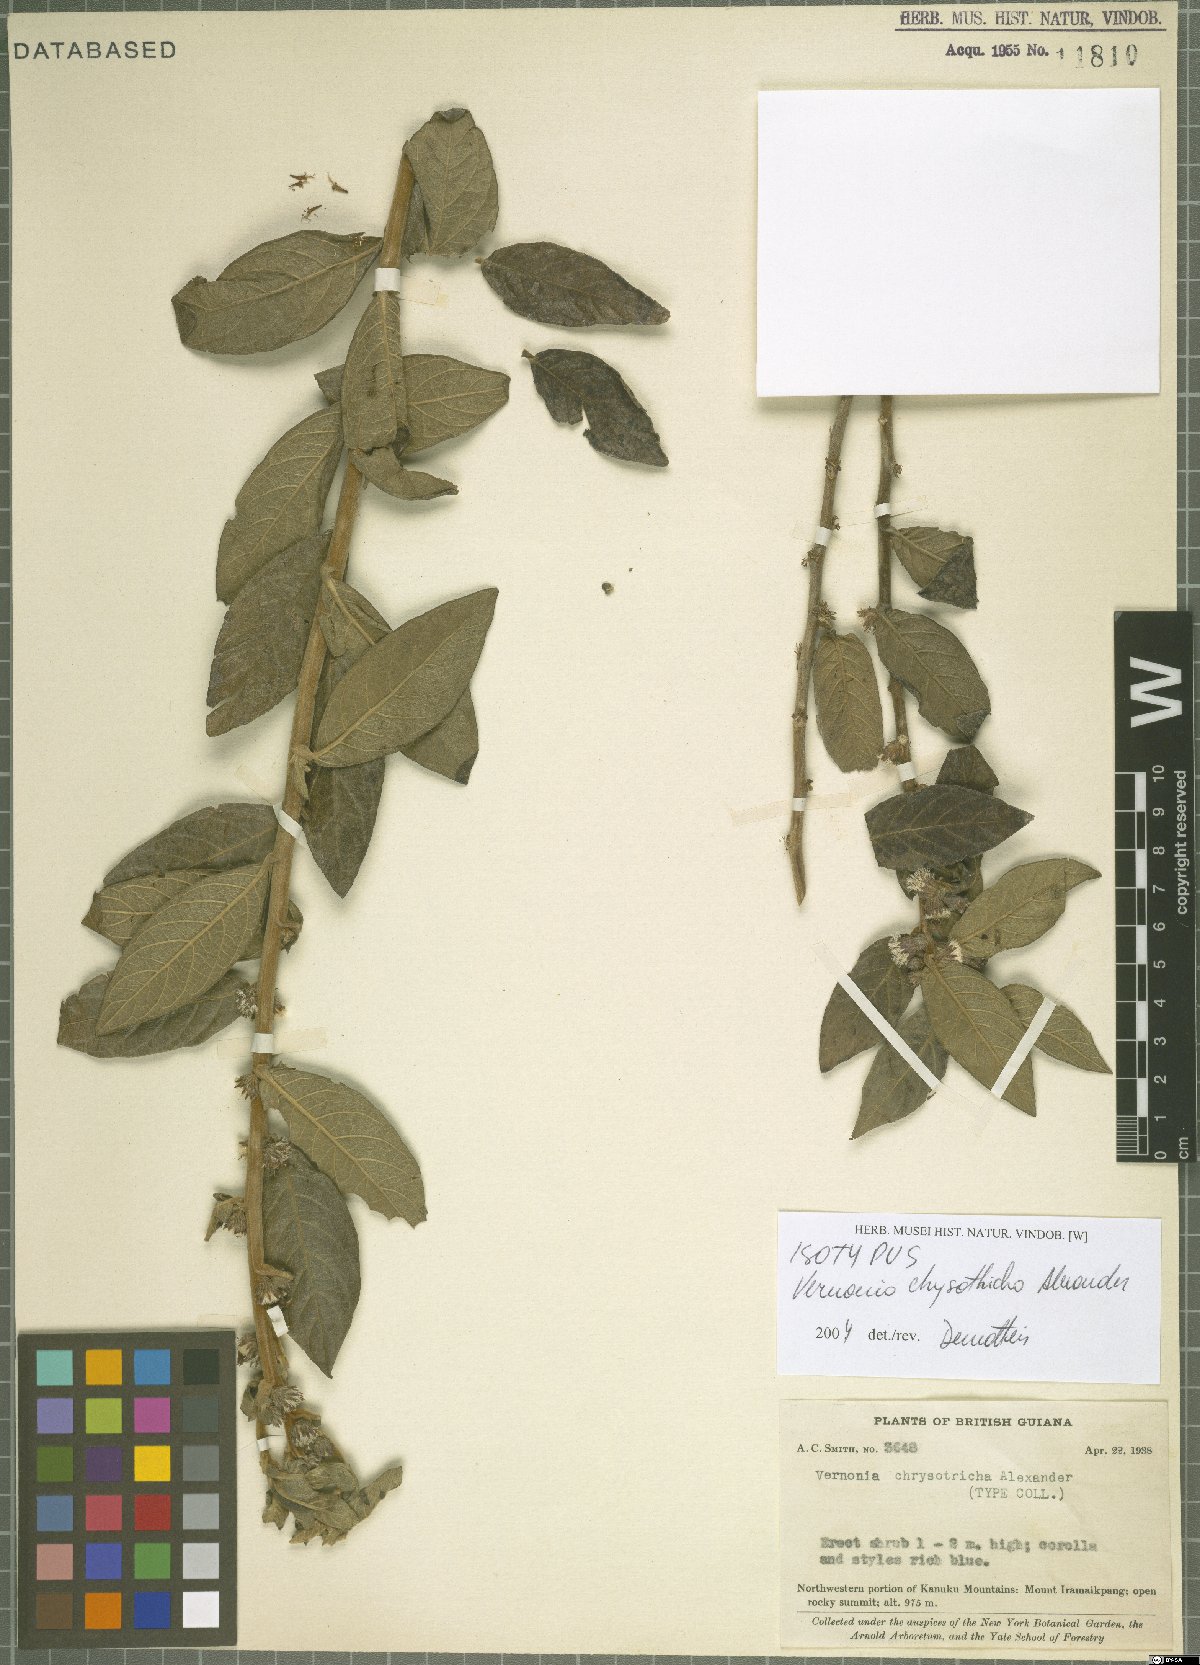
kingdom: Plantae
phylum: Tracheophyta
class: Magnoliopsida
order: Asterales
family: Asteraceae
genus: Lepidaploa
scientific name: Lepidaploa chrysotricha
